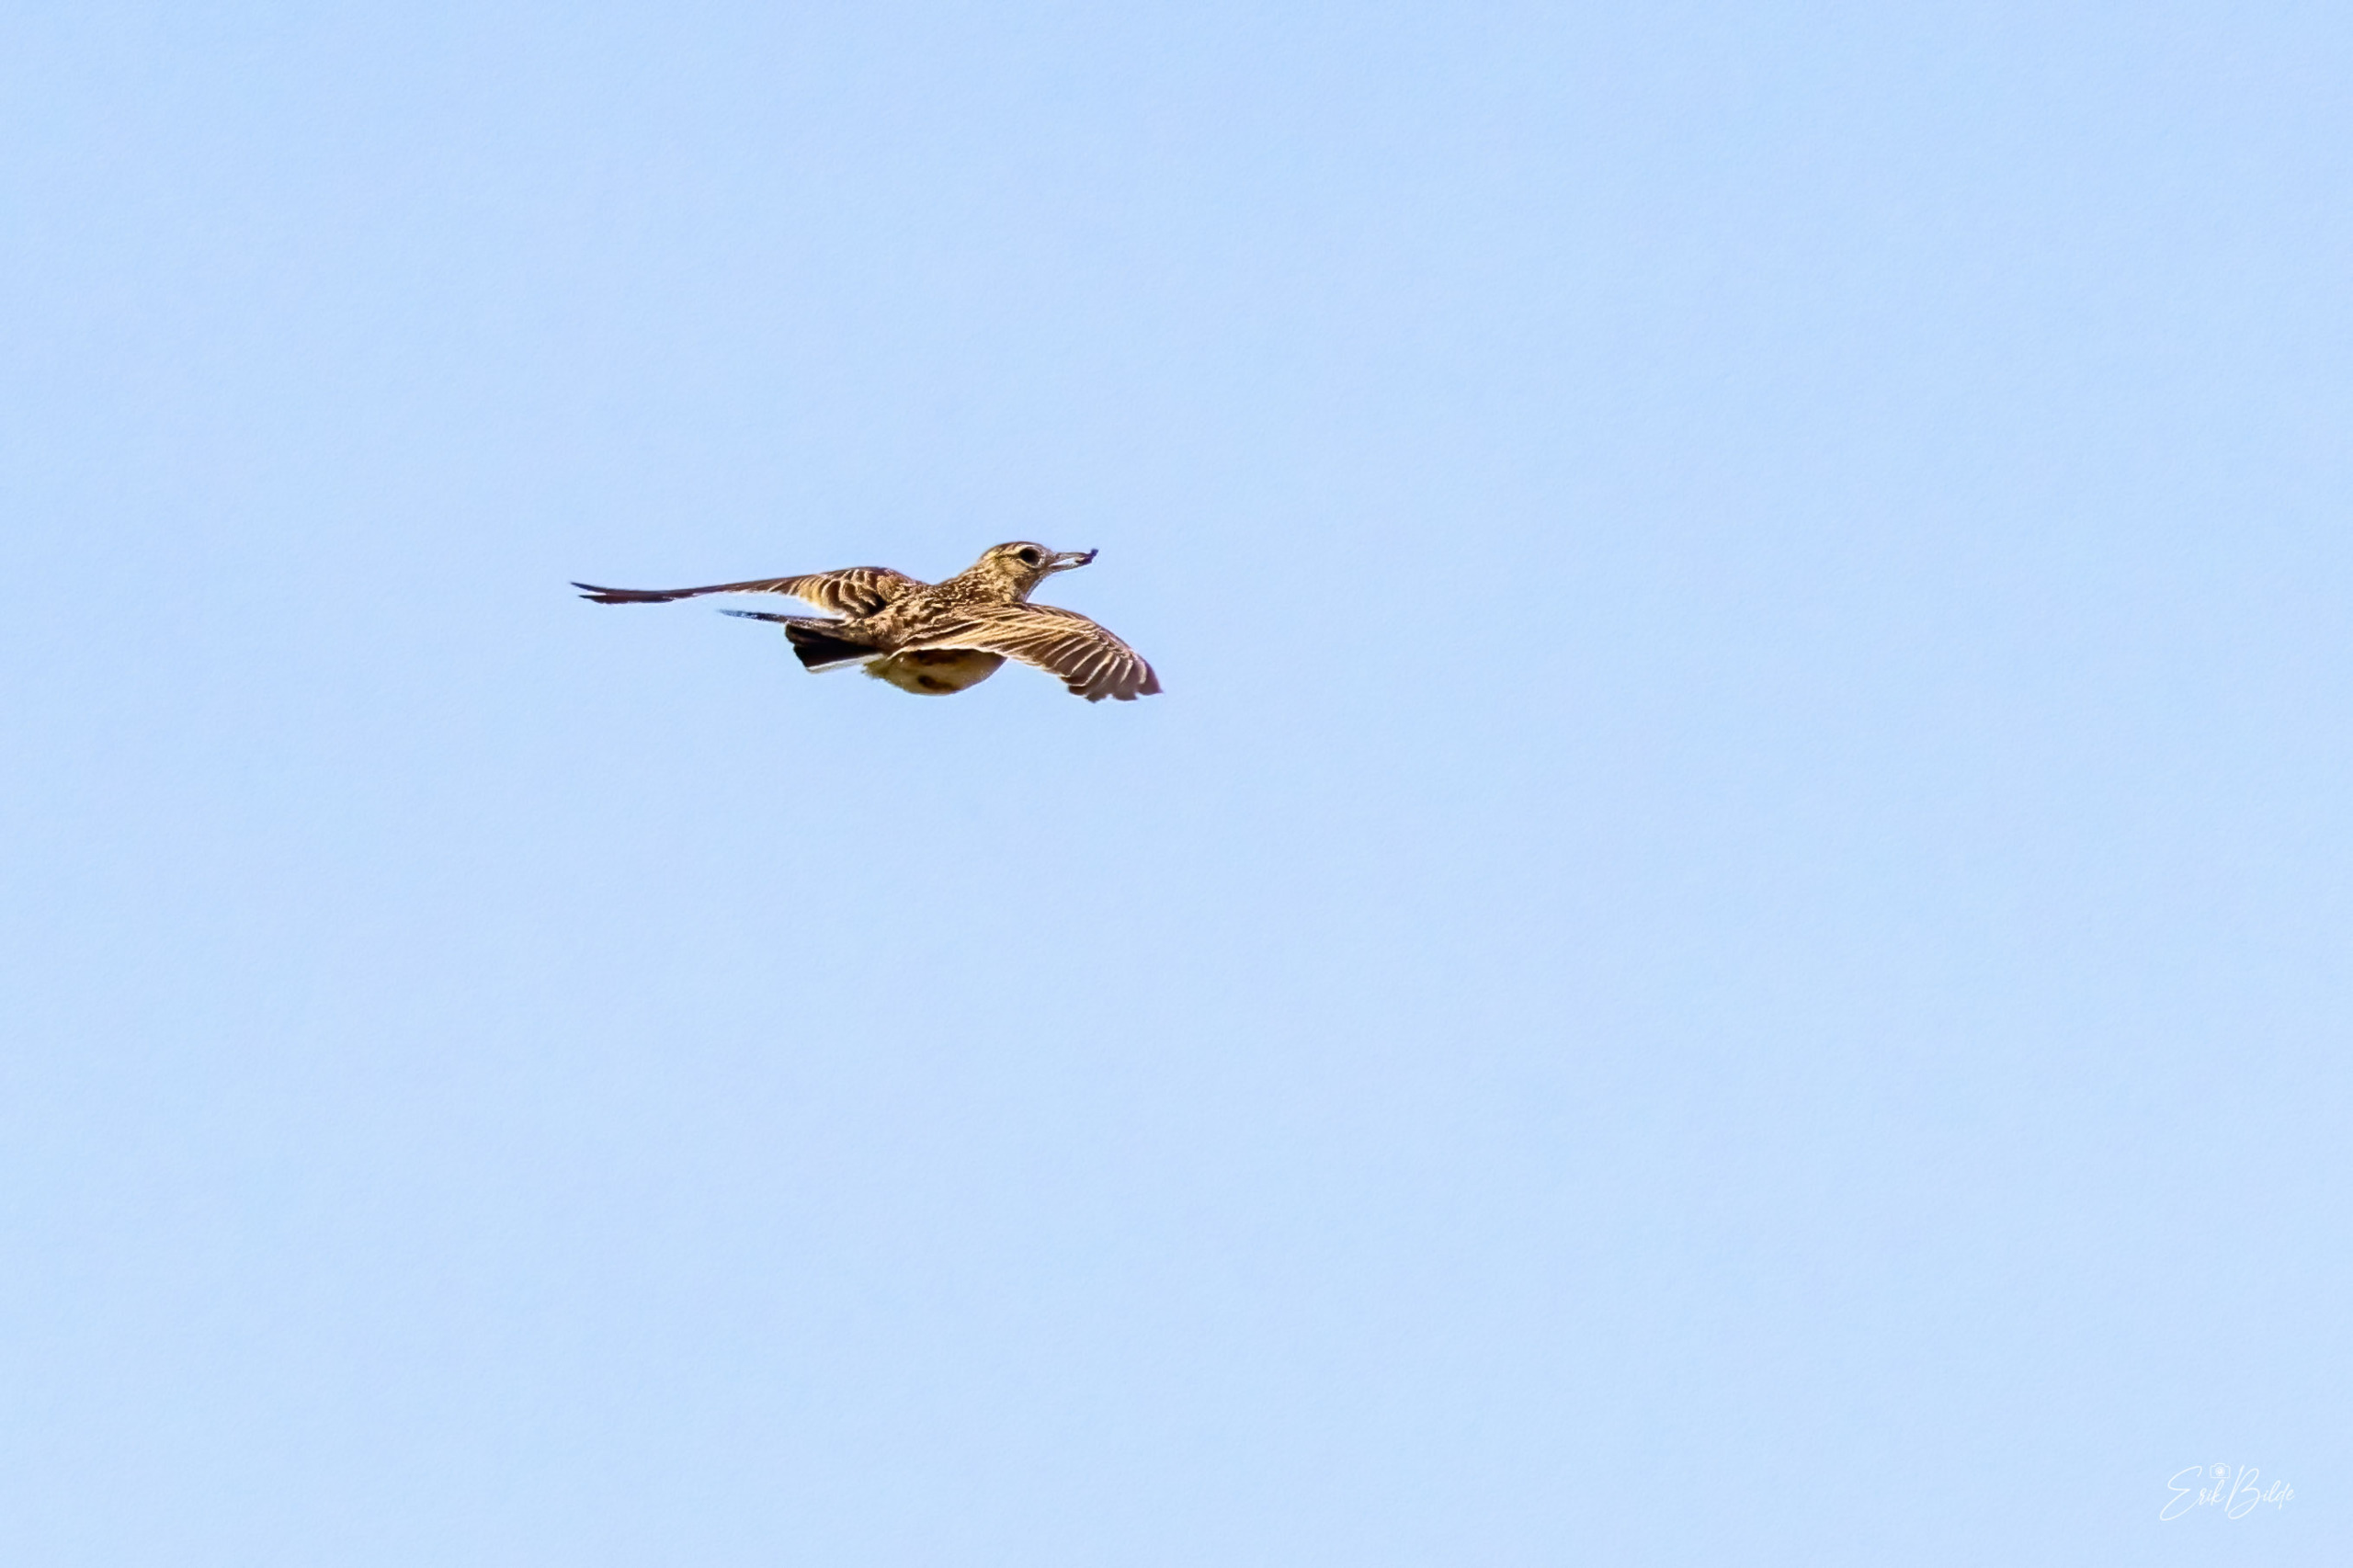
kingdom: Animalia
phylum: Chordata
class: Aves
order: Passeriformes
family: Alaudidae
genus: Alauda
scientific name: Alauda arvensis
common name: Sanglærke
